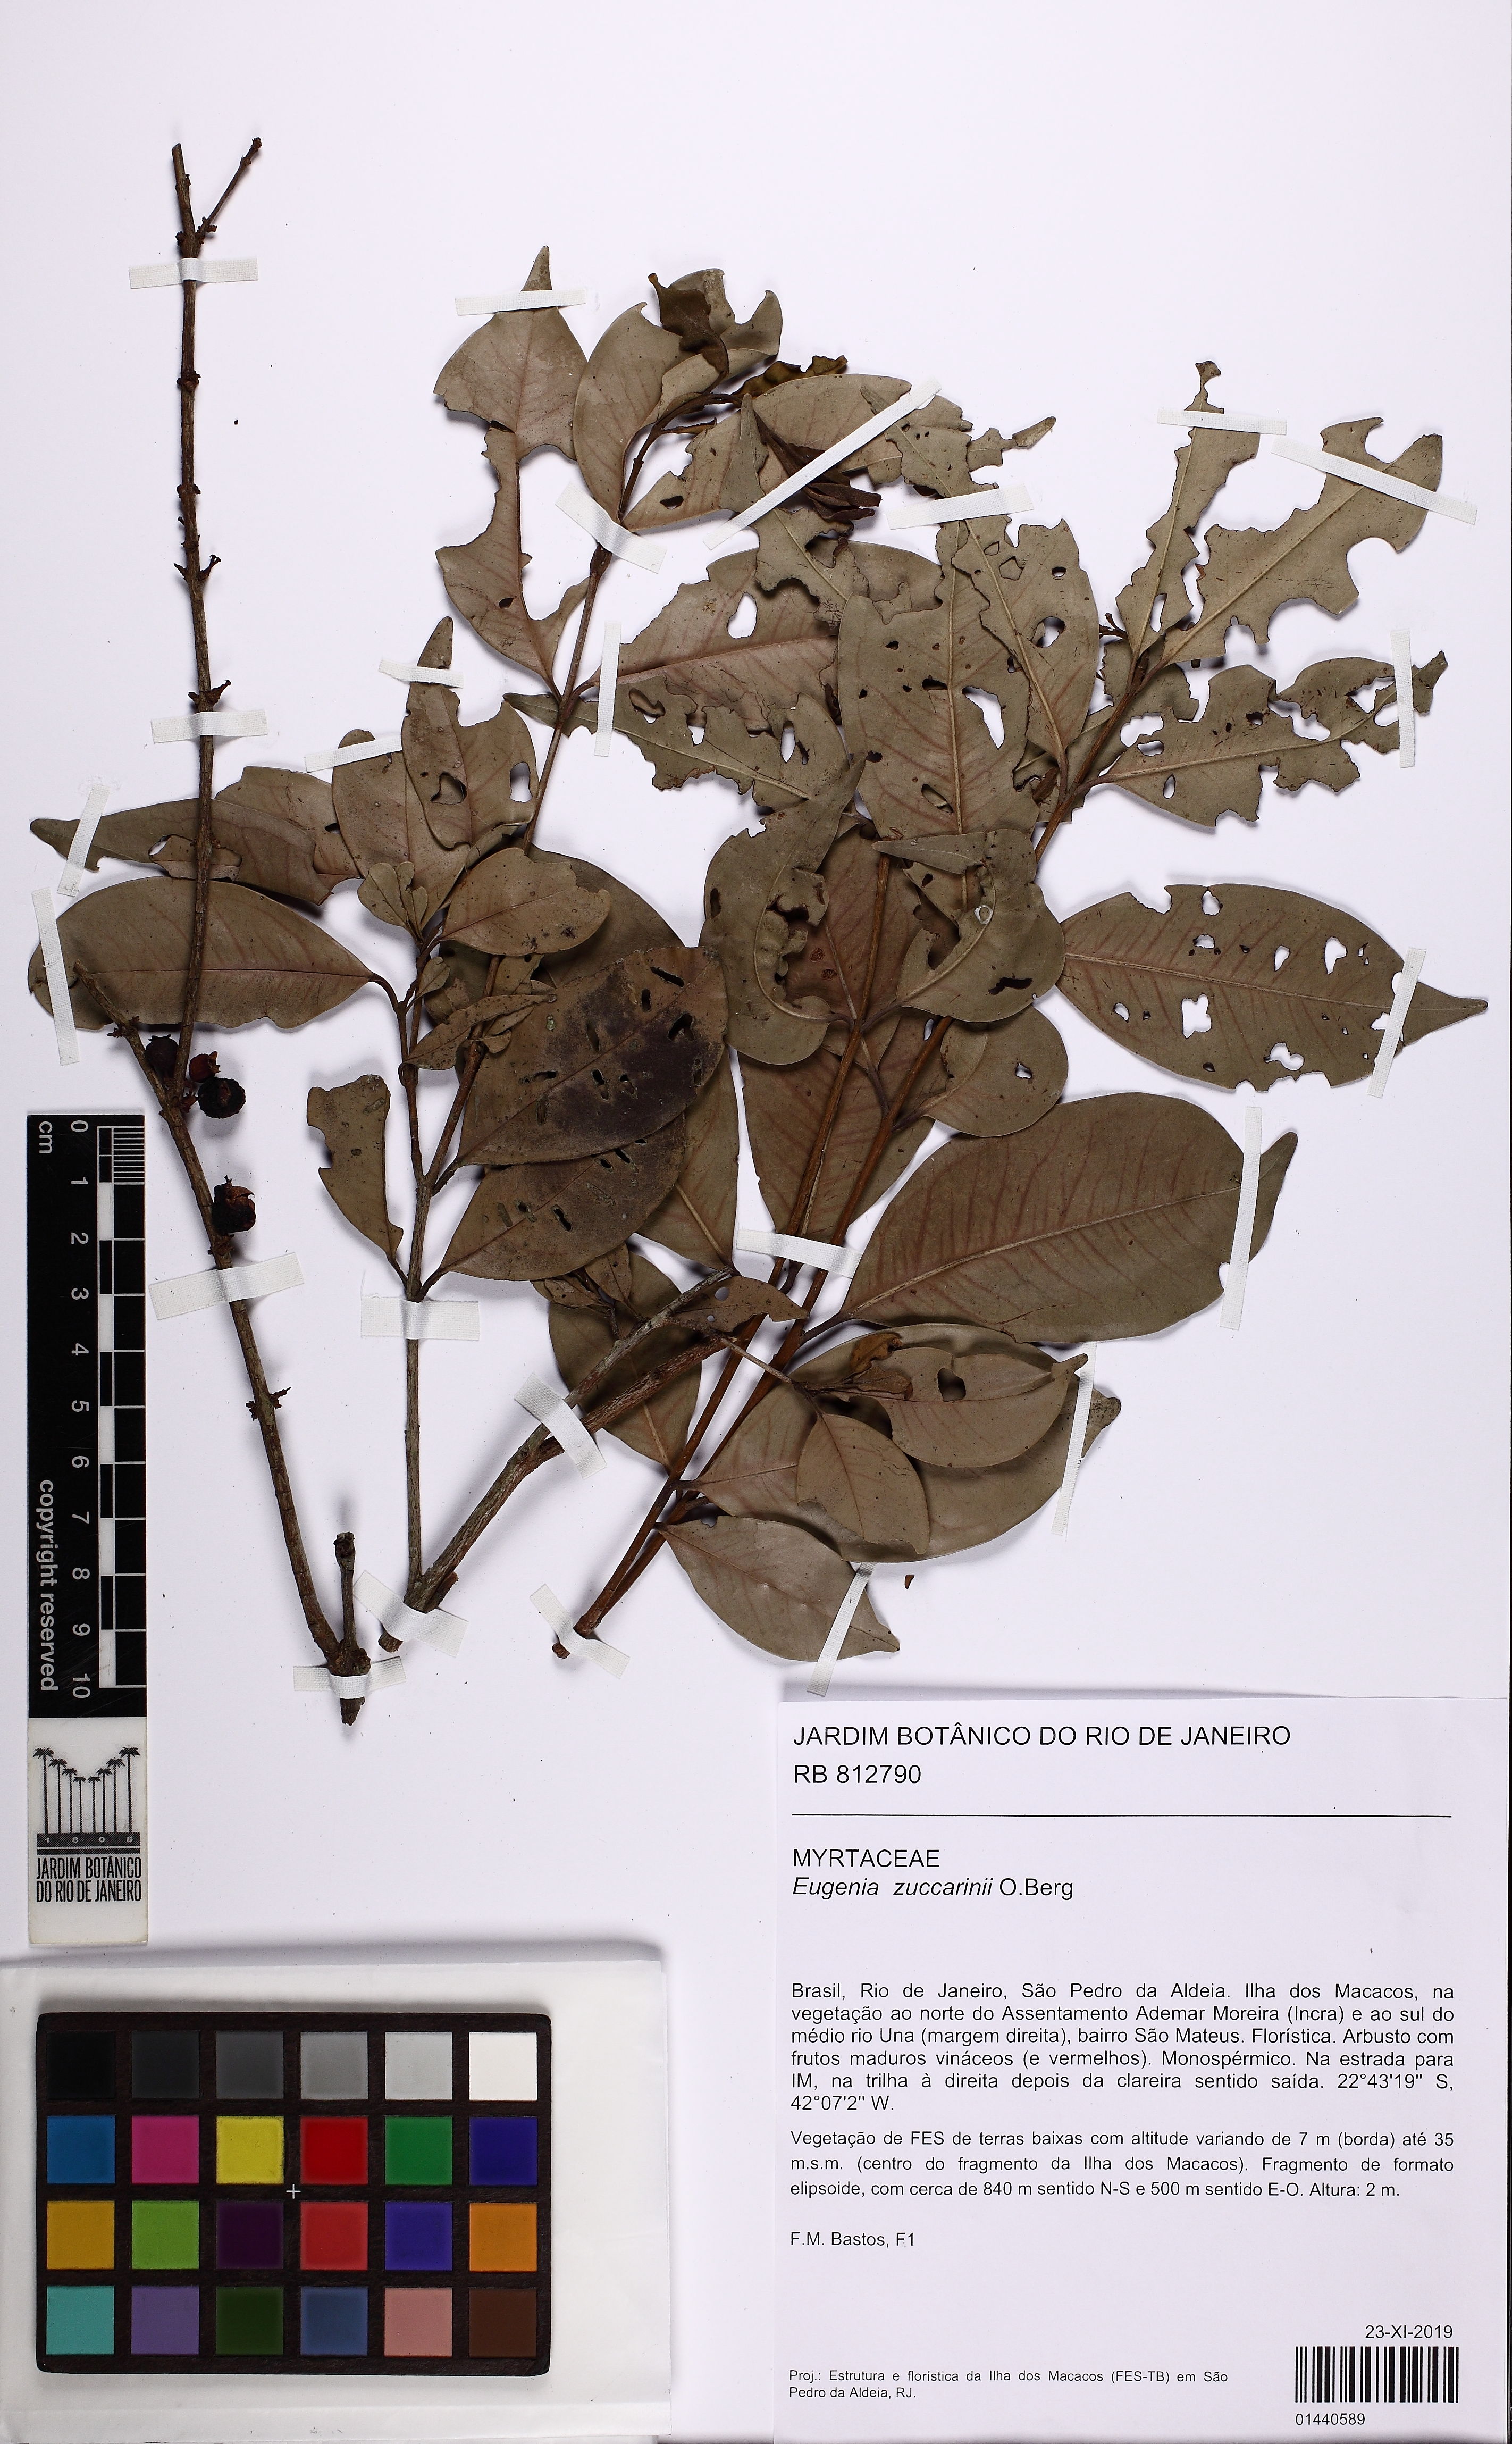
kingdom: Plantae
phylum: Tracheophyta
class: Magnoliopsida
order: Myrtales
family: Myrtaceae
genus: Eugenia
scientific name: Eugenia zuccarinii
